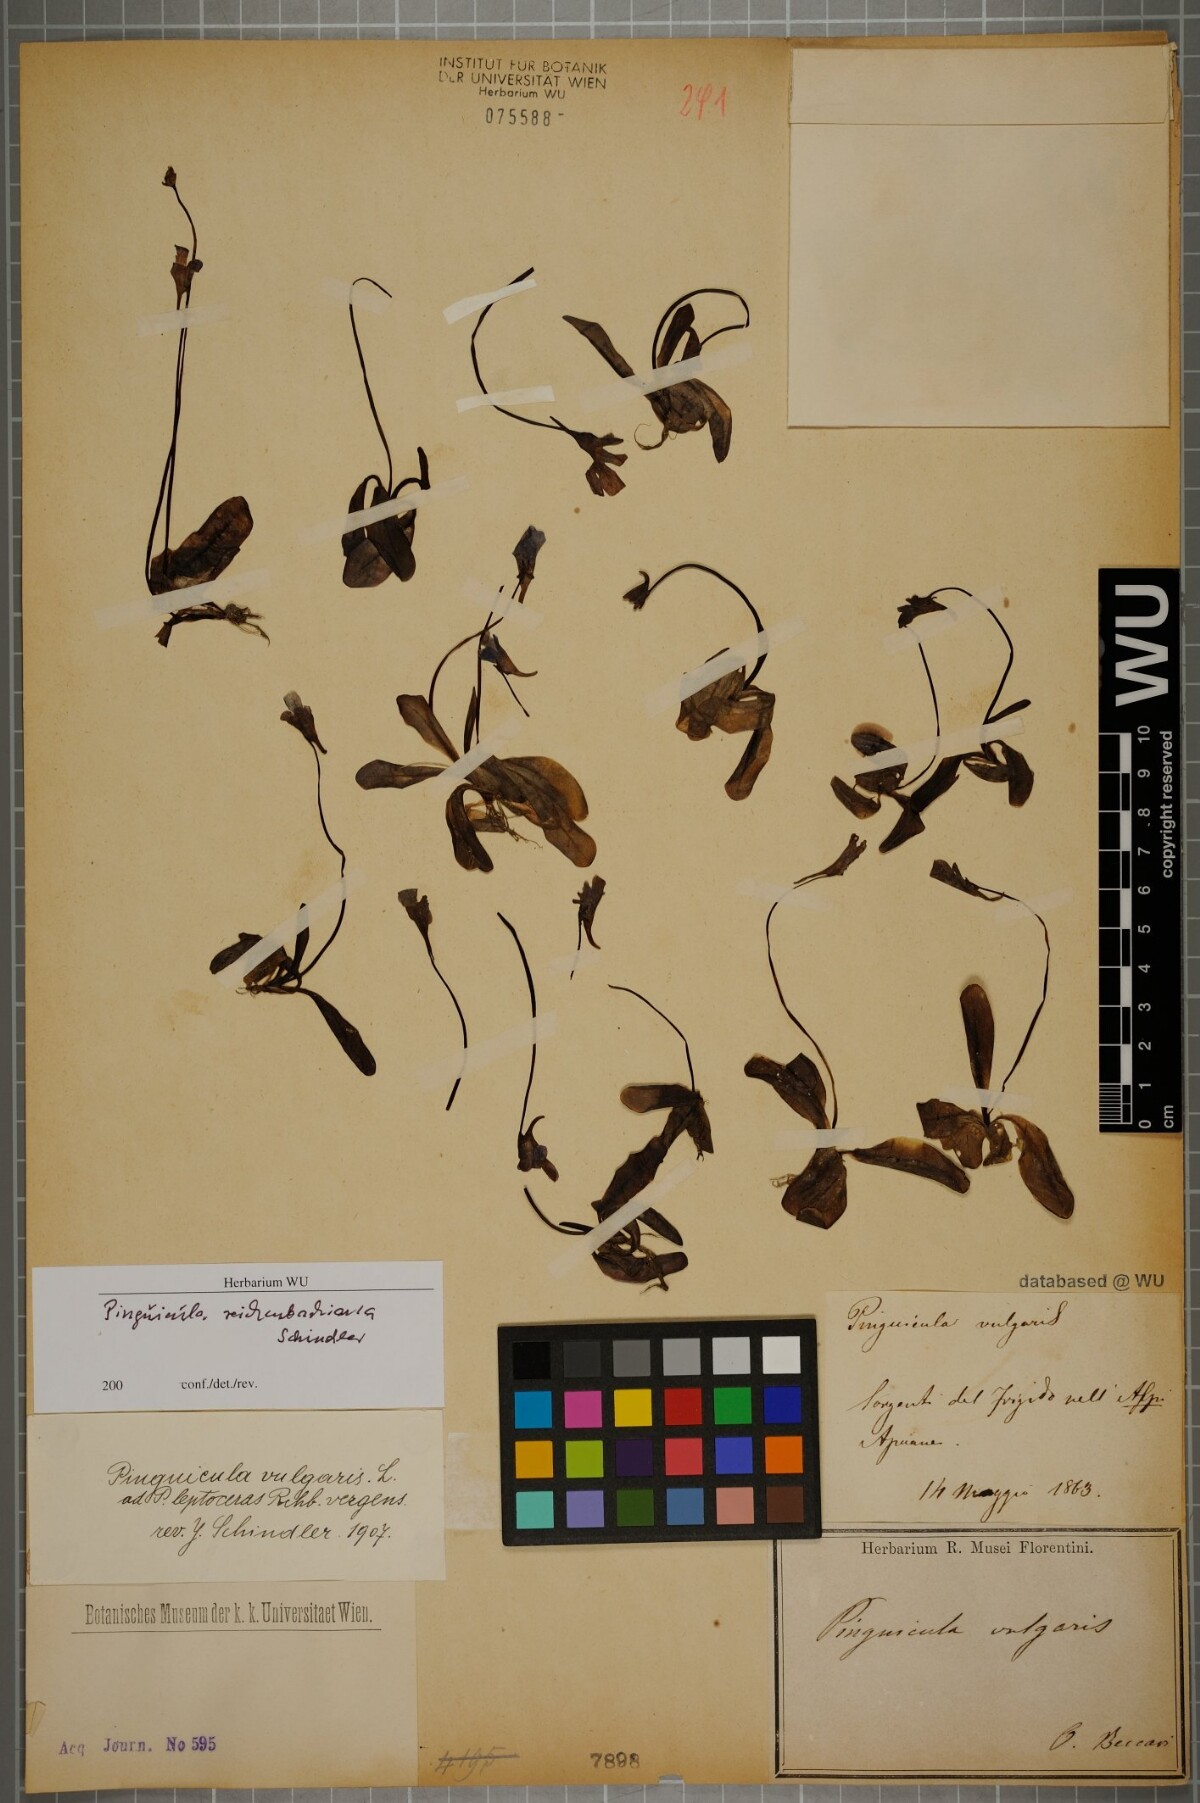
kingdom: Plantae
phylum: Tracheophyta
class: Magnoliopsida
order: Lamiales
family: Lentibulariaceae
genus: Pinguicula
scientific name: Pinguicula longifolia
